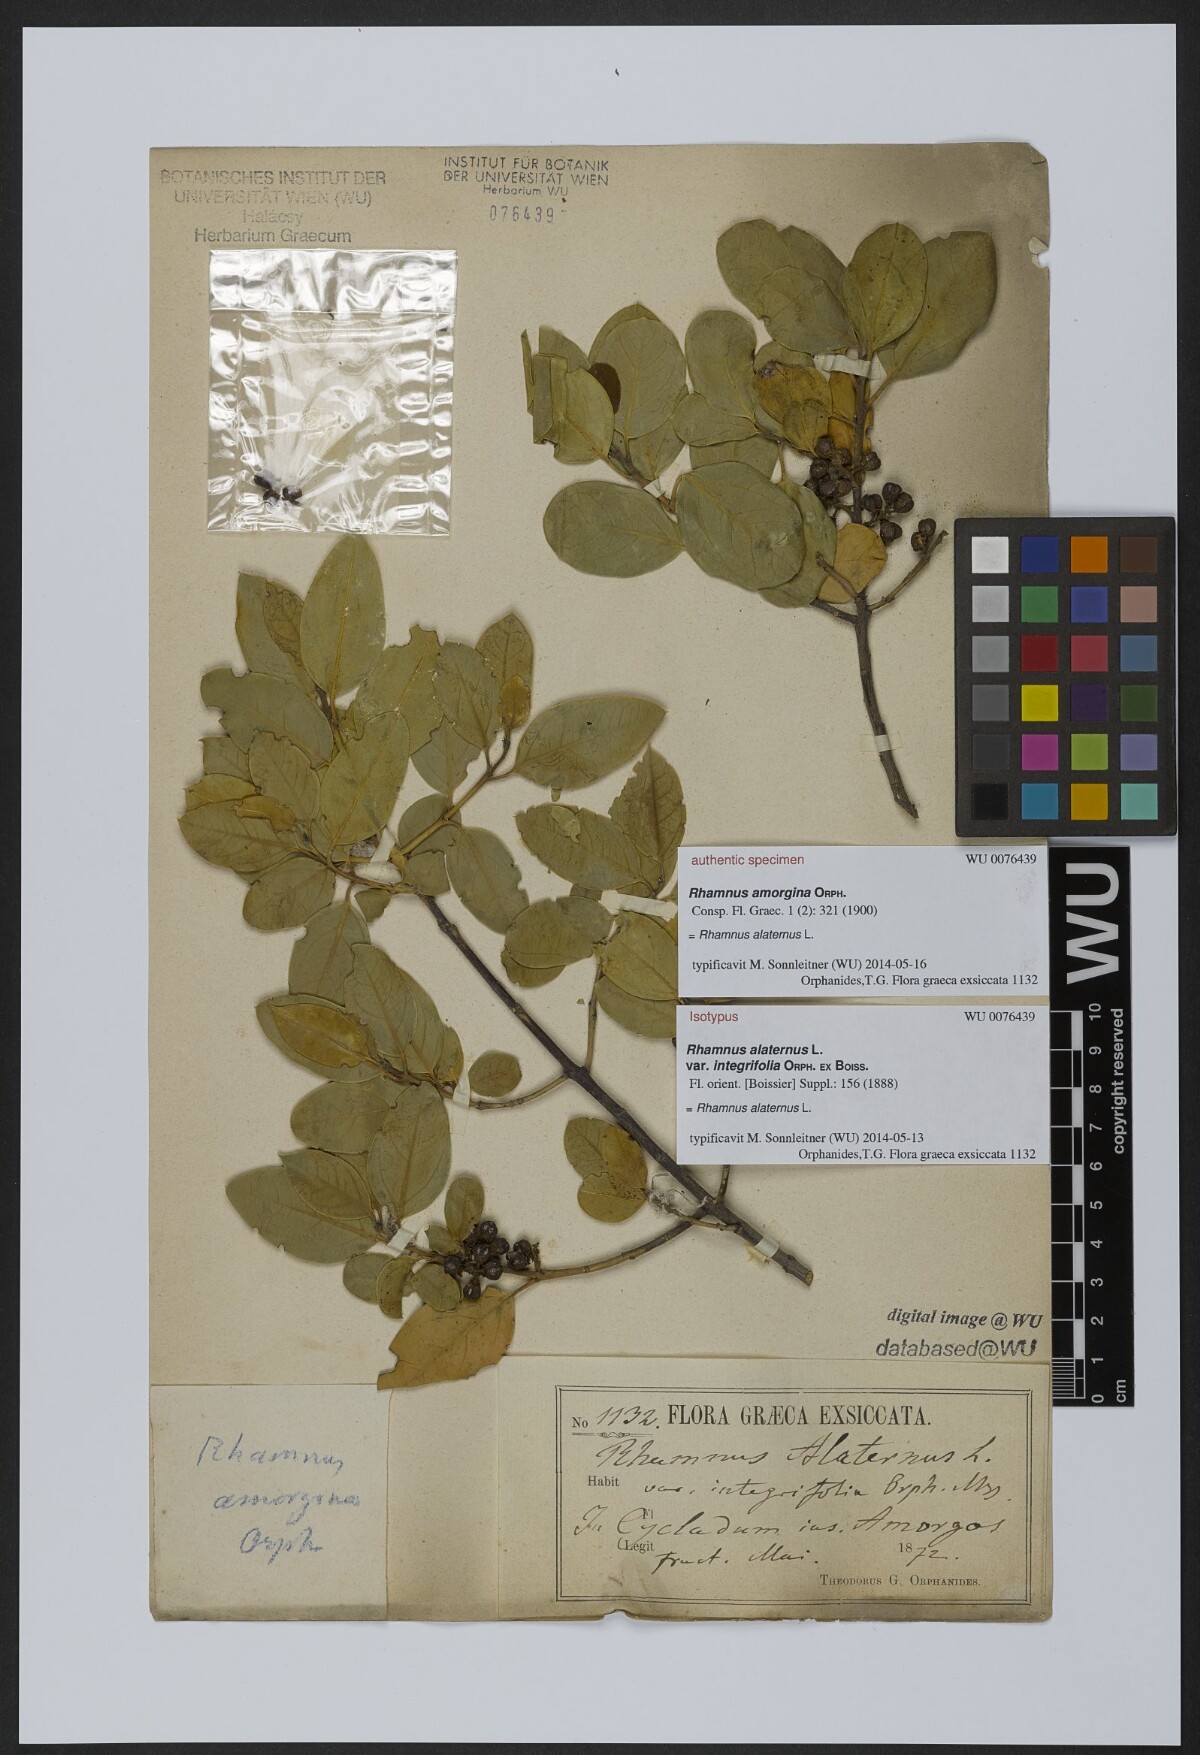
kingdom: Plantae
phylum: Tracheophyta
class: Magnoliopsida
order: Rosales
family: Rhamnaceae
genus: Rhamnus
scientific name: Rhamnus alaternus
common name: Mediterranean buckthorn
